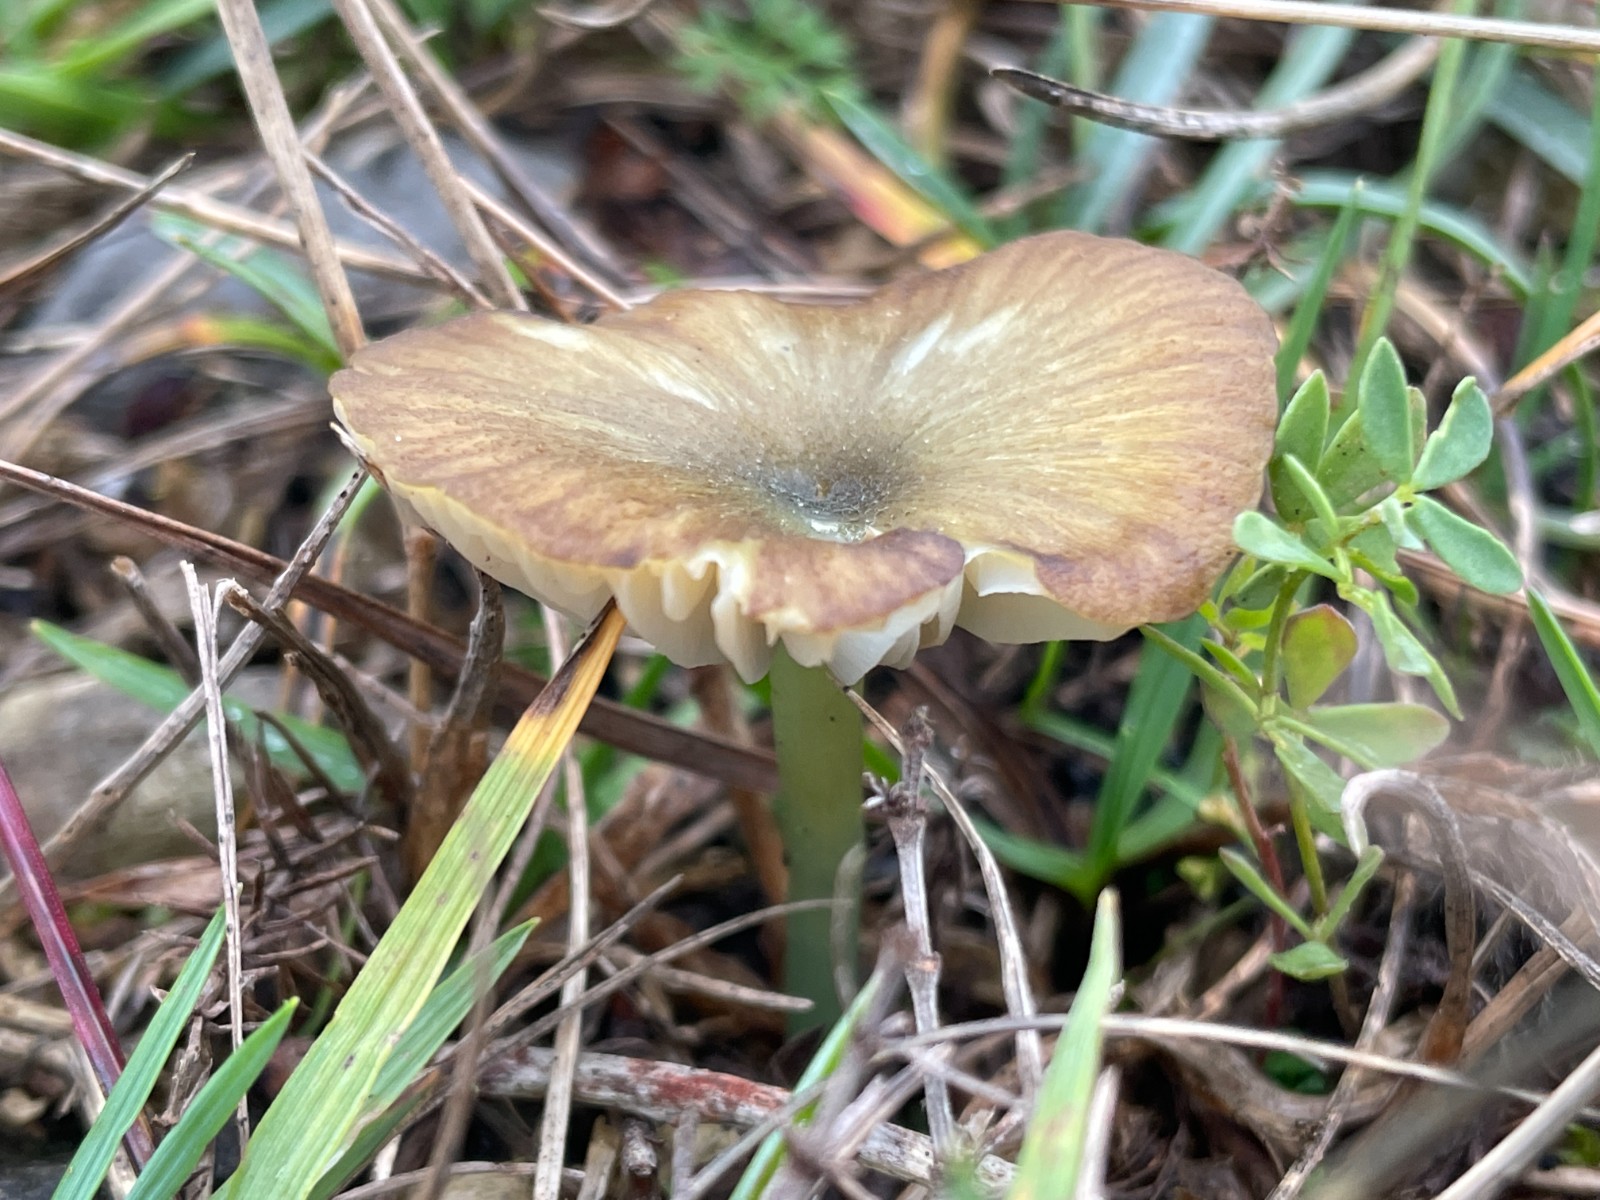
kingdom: Fungi
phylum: Basidiomycota
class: Agaricomycetes
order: Agaricales
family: Entolomataceae
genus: Entoloma
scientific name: Entoloma incanum
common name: grøngul rødblad
